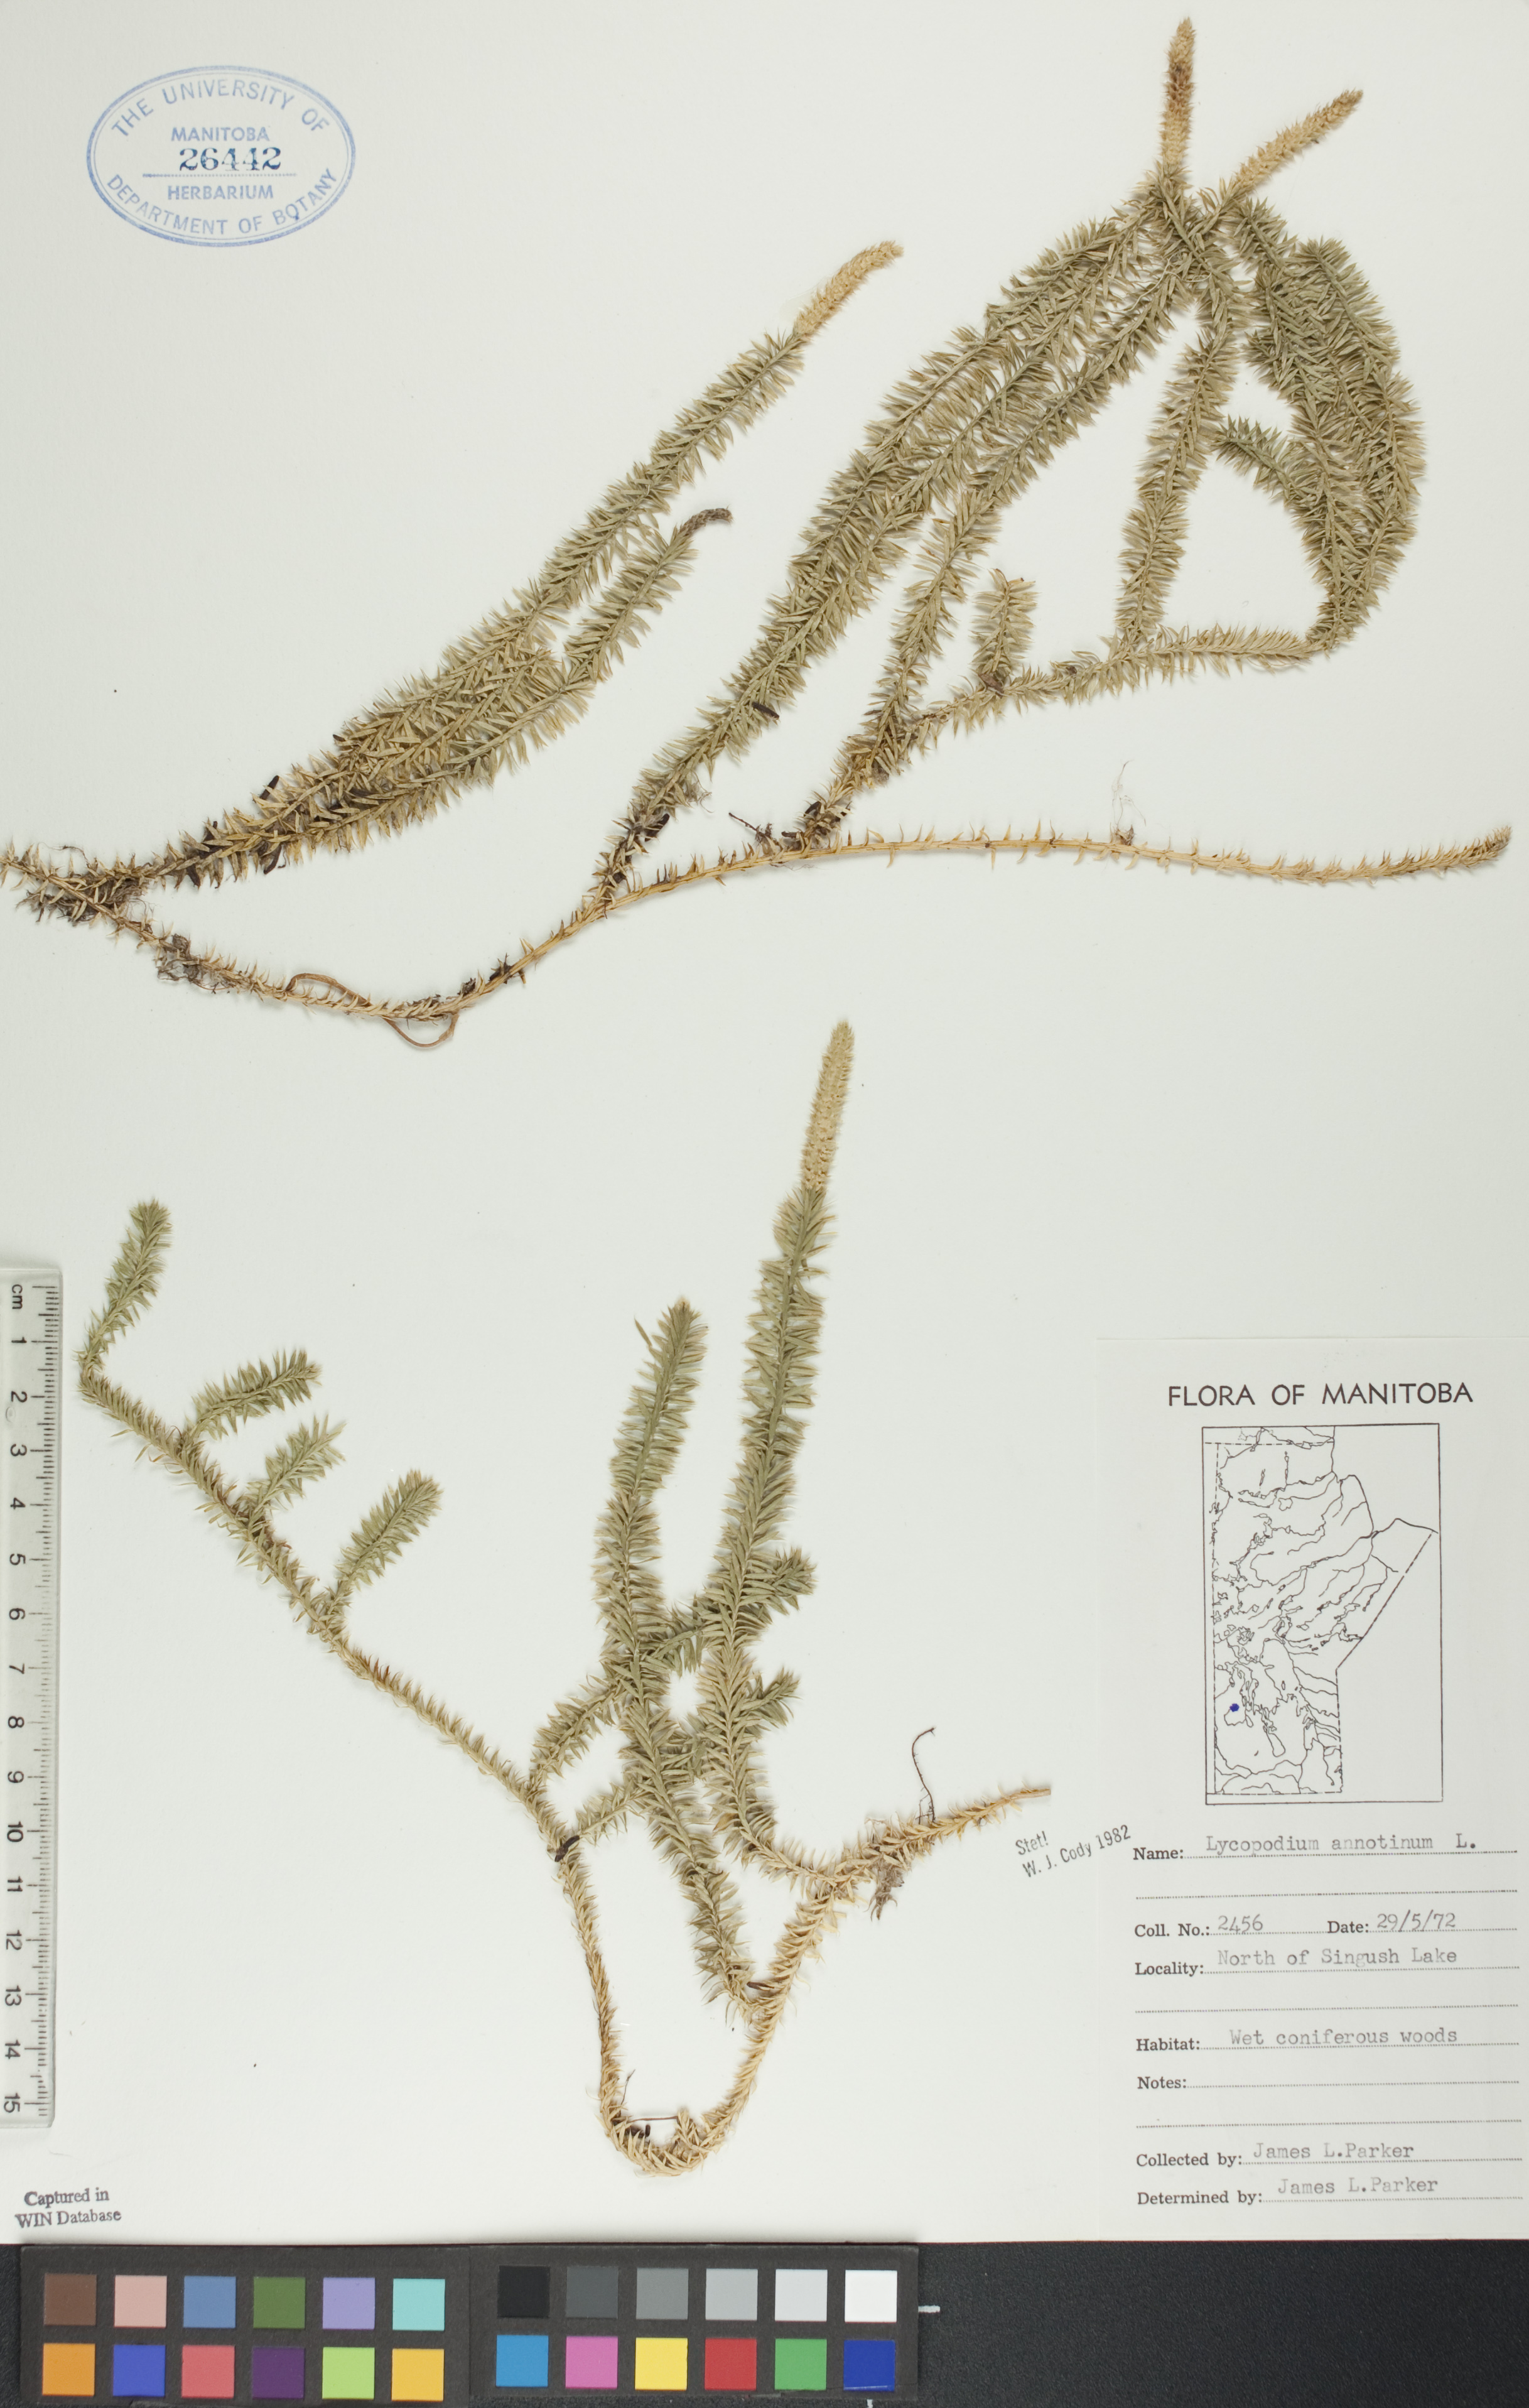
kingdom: Plantae
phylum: Tracheophyta
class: Lycopodiopsida
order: Lycopodiales
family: Lycopodiaceae
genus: Spinulum
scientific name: Spinulum annotinum
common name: Interrupted club-moss
